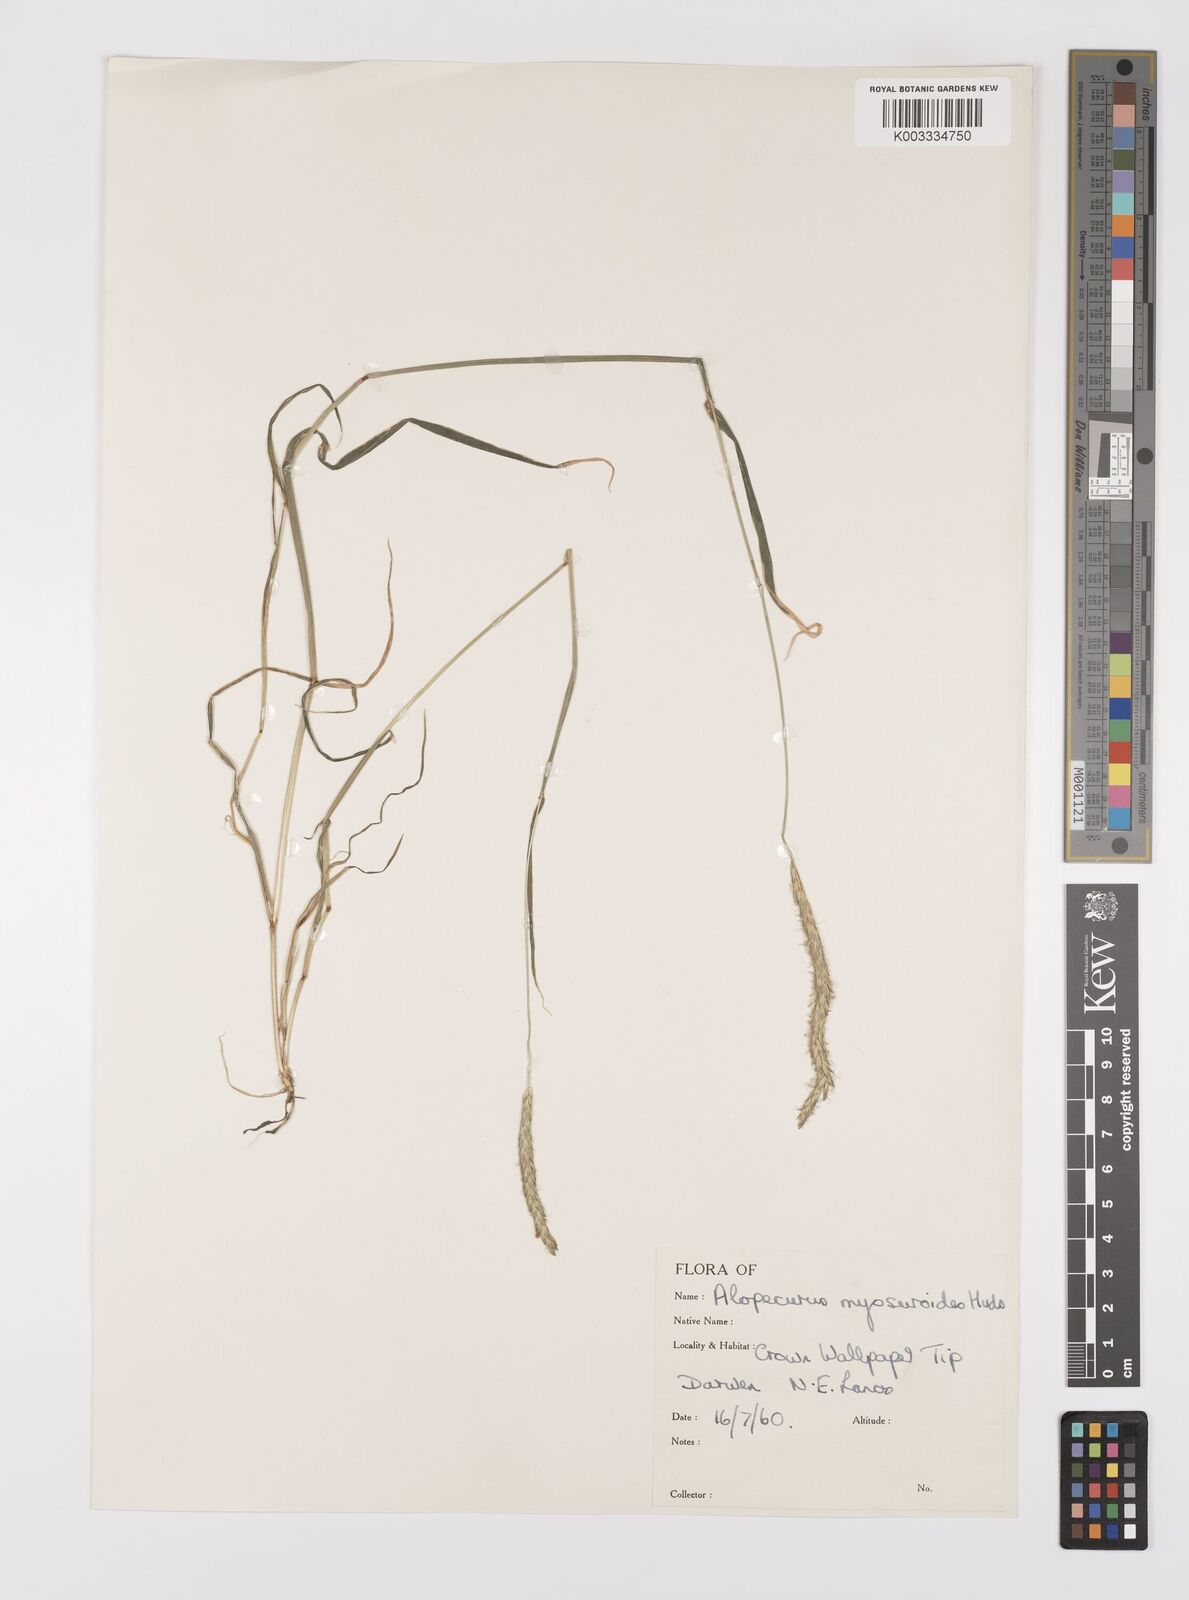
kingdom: Plantae
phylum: Tracheophyta
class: Liliopsida
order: Poales
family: Poaceae
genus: Alopecurus
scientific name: Alopecurus myosuroides
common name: Black-grass
